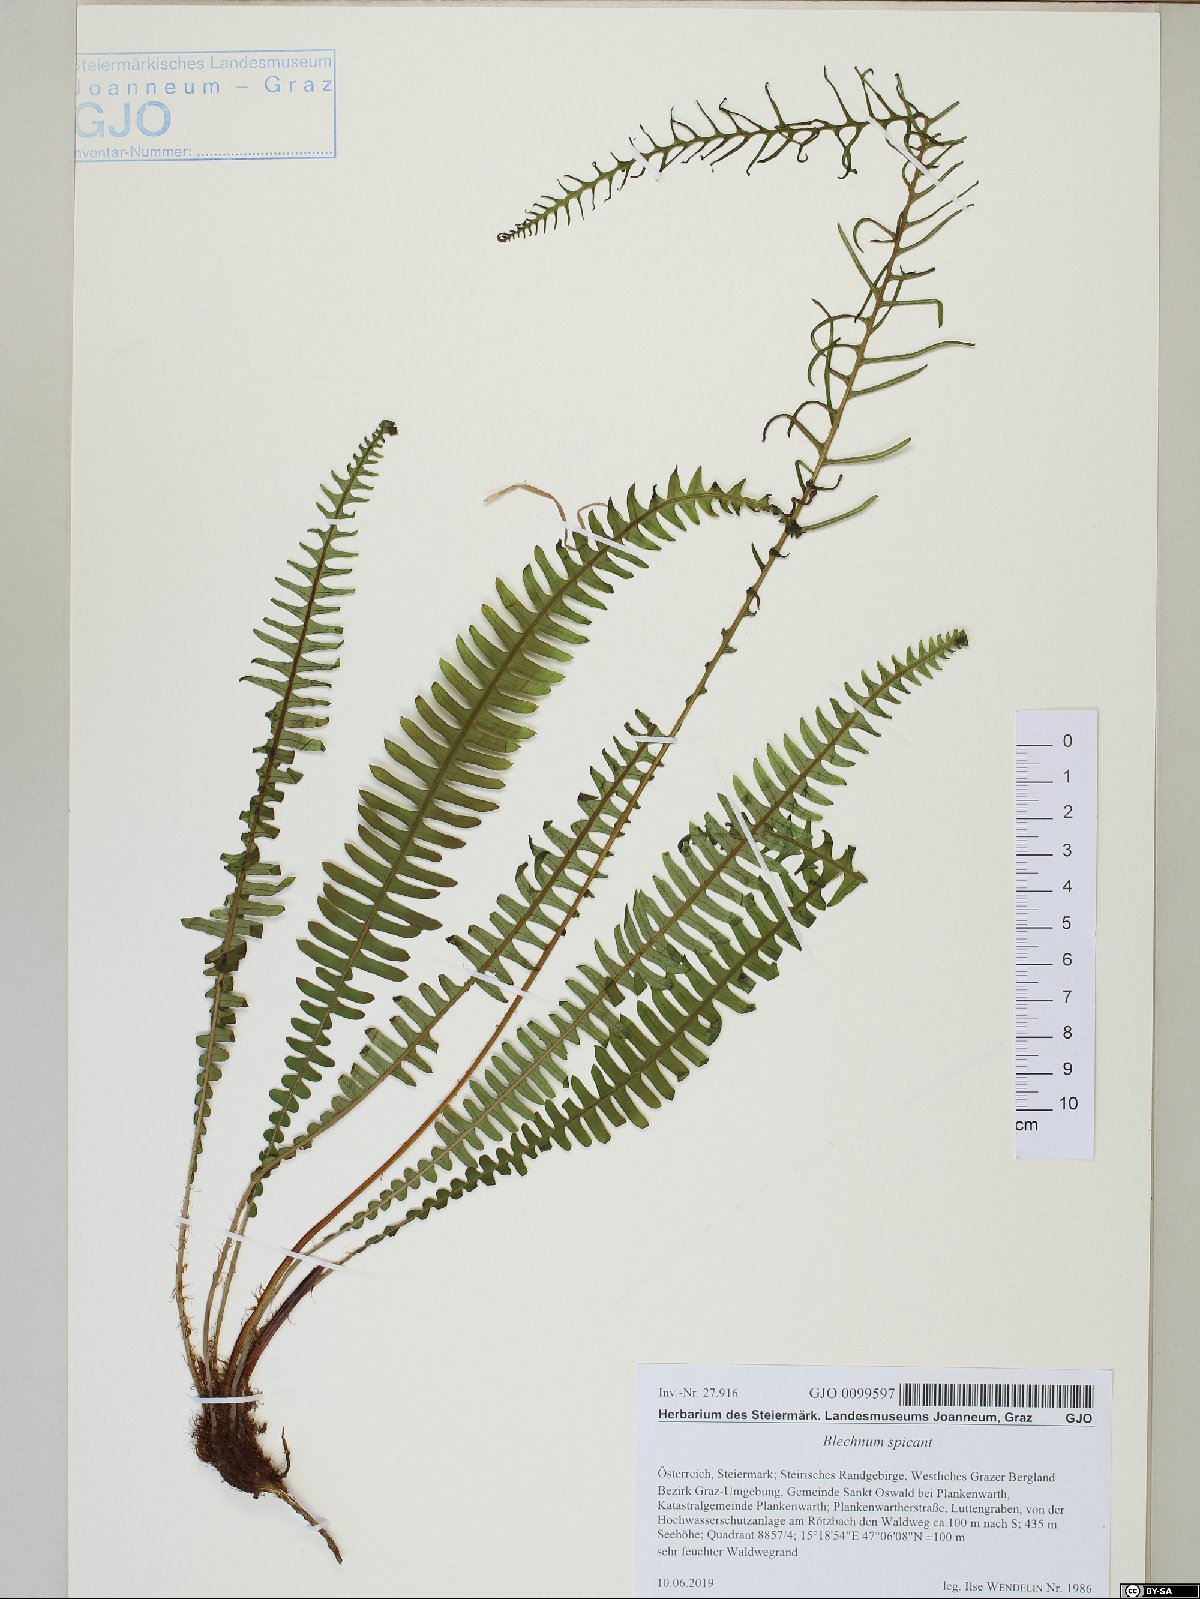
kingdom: Plantae
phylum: Tracheophyta
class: Polypodiopsida
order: Polypodiales
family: Blechnaceae
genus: Struthiopteris
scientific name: Struthiopteris spicant
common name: Deer fern
